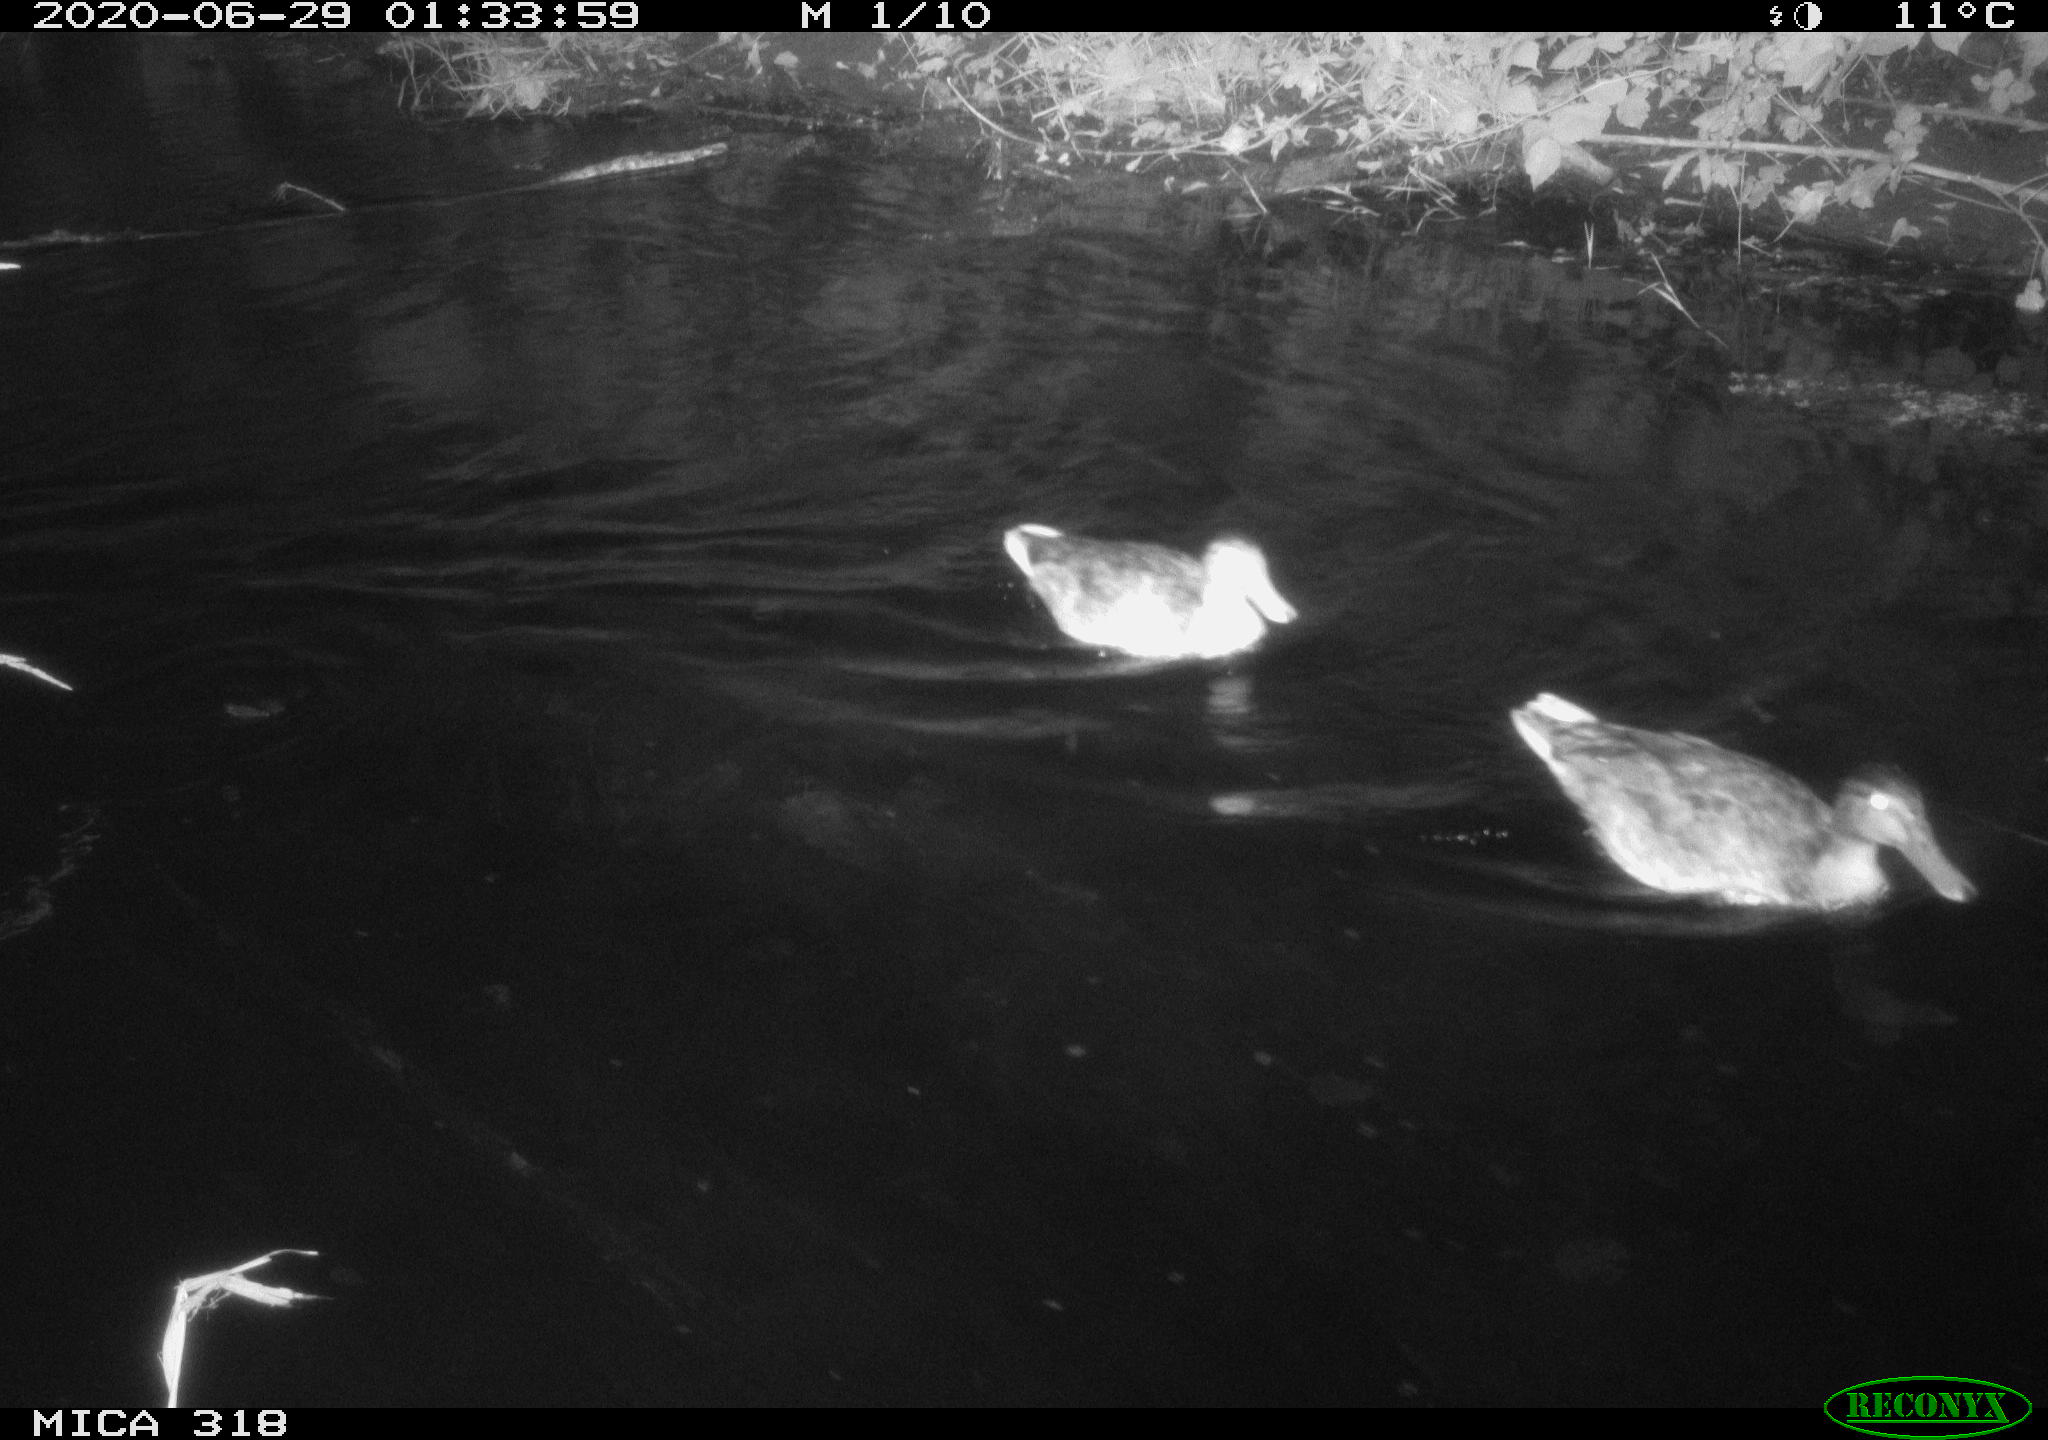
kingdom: Animalia
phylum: Chordata
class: Aves
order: Anseriformes
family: Anatidae
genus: Anas
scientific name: Anas platyrhynchos
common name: Mallard
